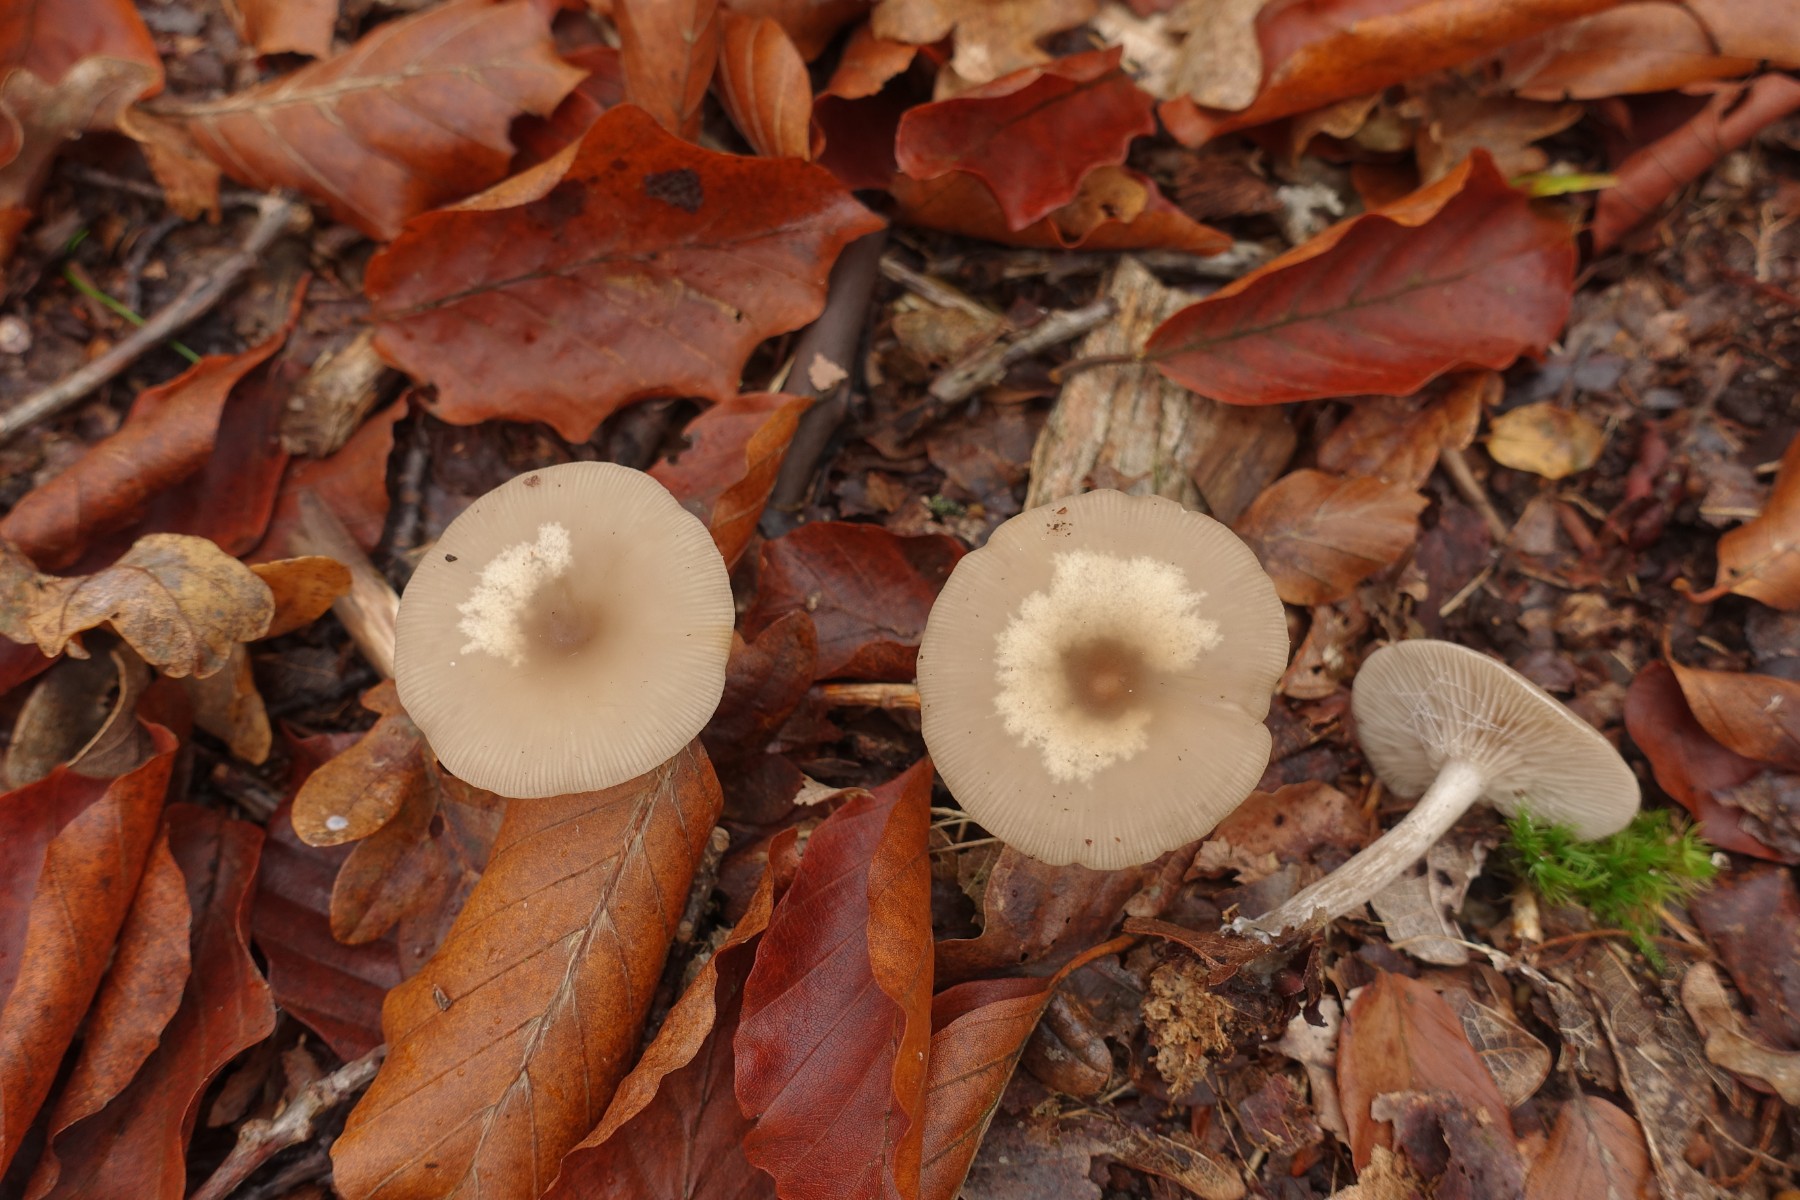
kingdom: Fungi
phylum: Basidiomycota
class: Agaricomycetes
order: Agaricales
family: Tricholomataceae
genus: Clitocybe
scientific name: Clitocybe metachroa
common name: grå tragthat
